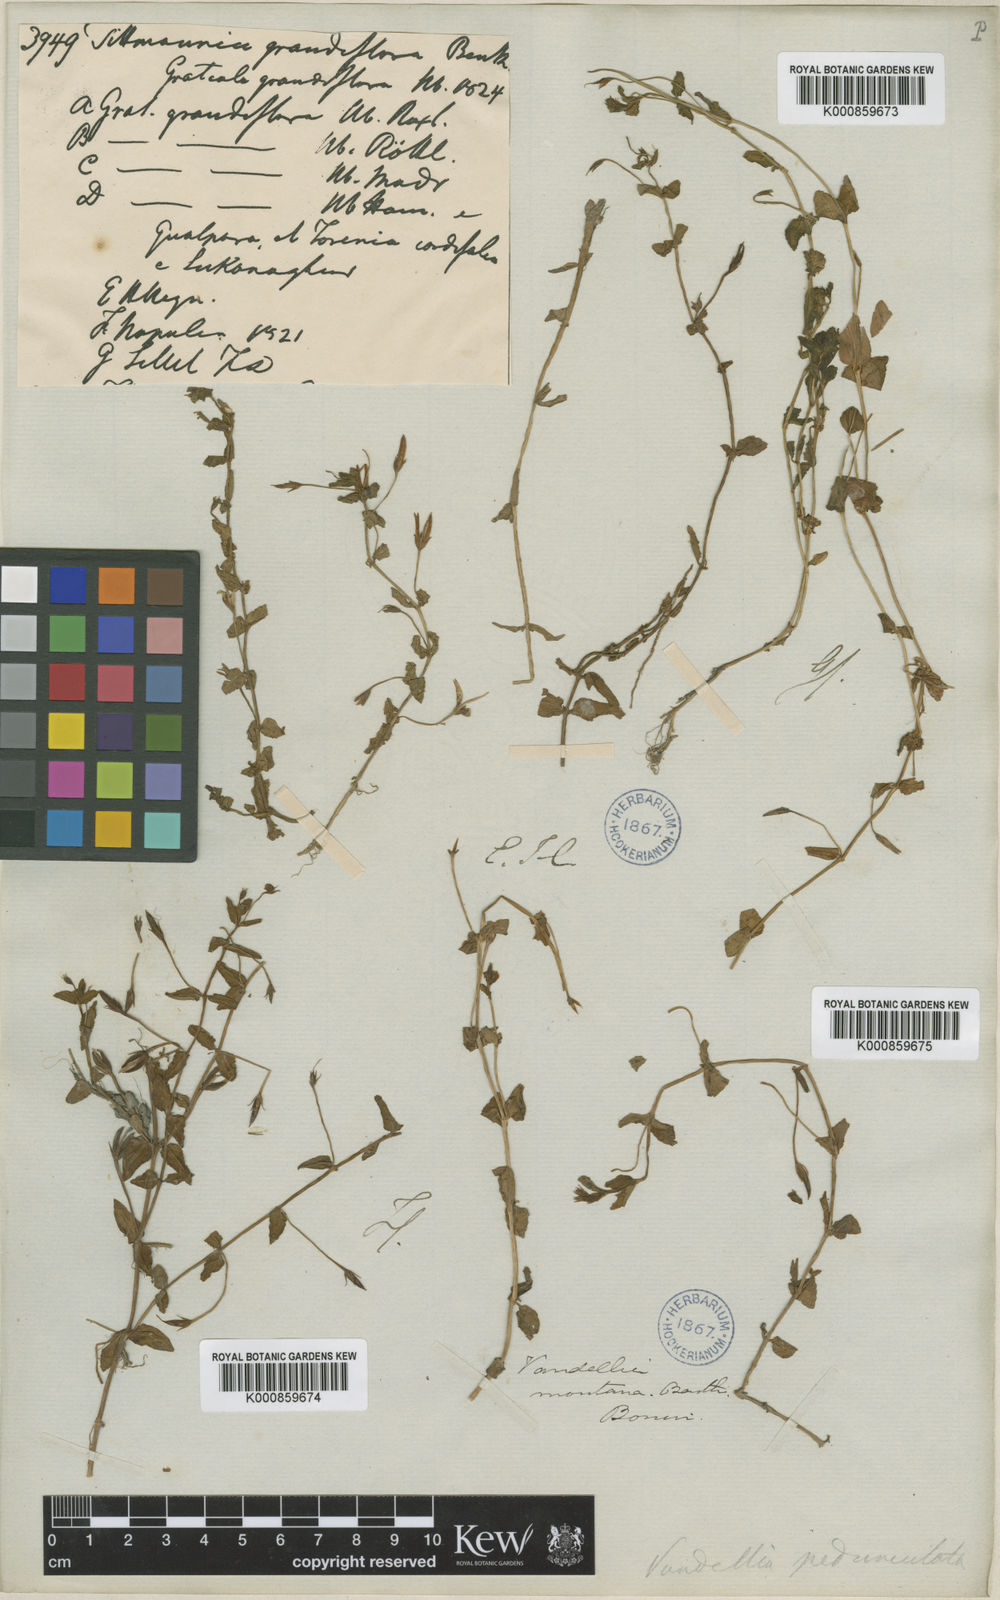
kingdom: Plantae
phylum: Tracheophyta
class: Magnoliopsida
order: Lamiales
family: Linderniaceae
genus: Torenia
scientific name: Torenia anagallis
